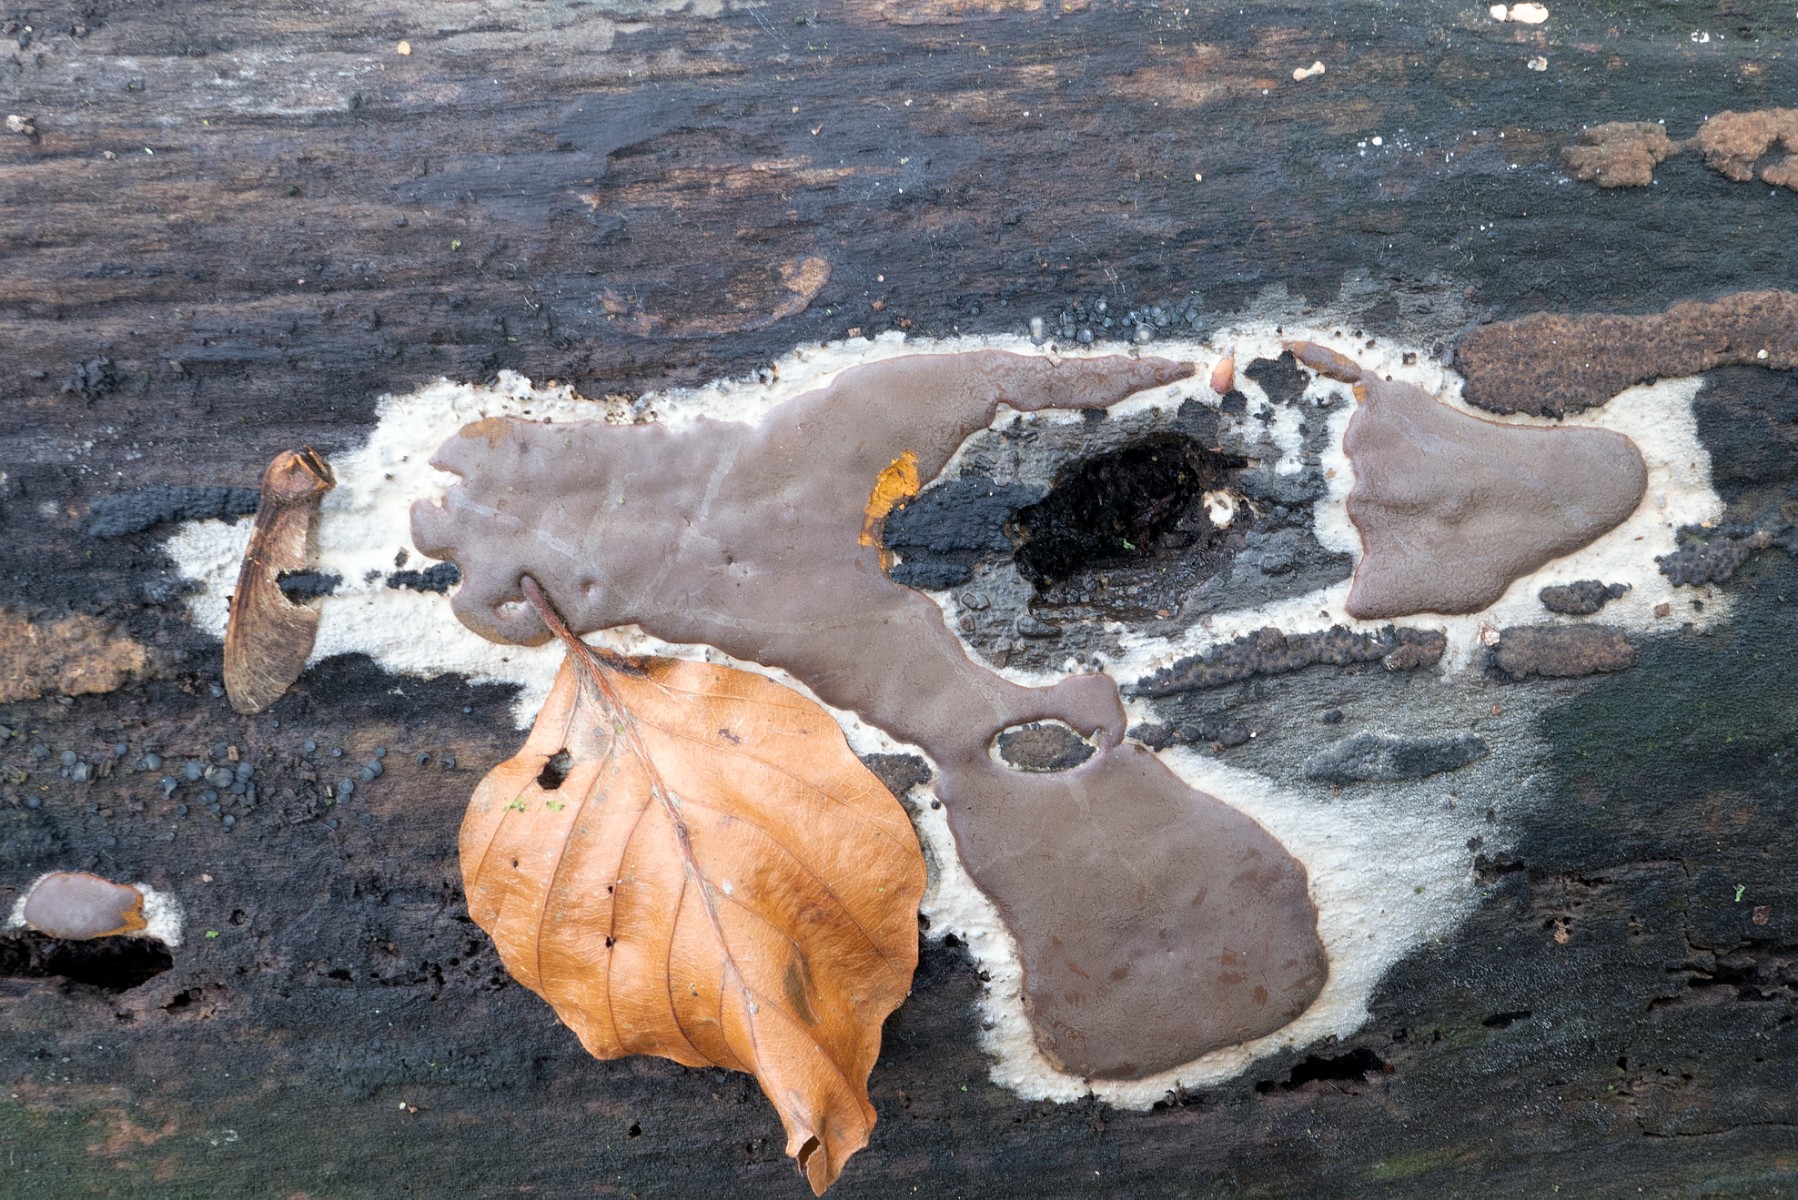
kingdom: Protozoa
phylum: Mycetozoa
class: Myxomycetes
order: Trichiales
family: Dictydiaethaliaceae
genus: Dictydiaethalium
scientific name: Dictydiaethalium plumbeum
